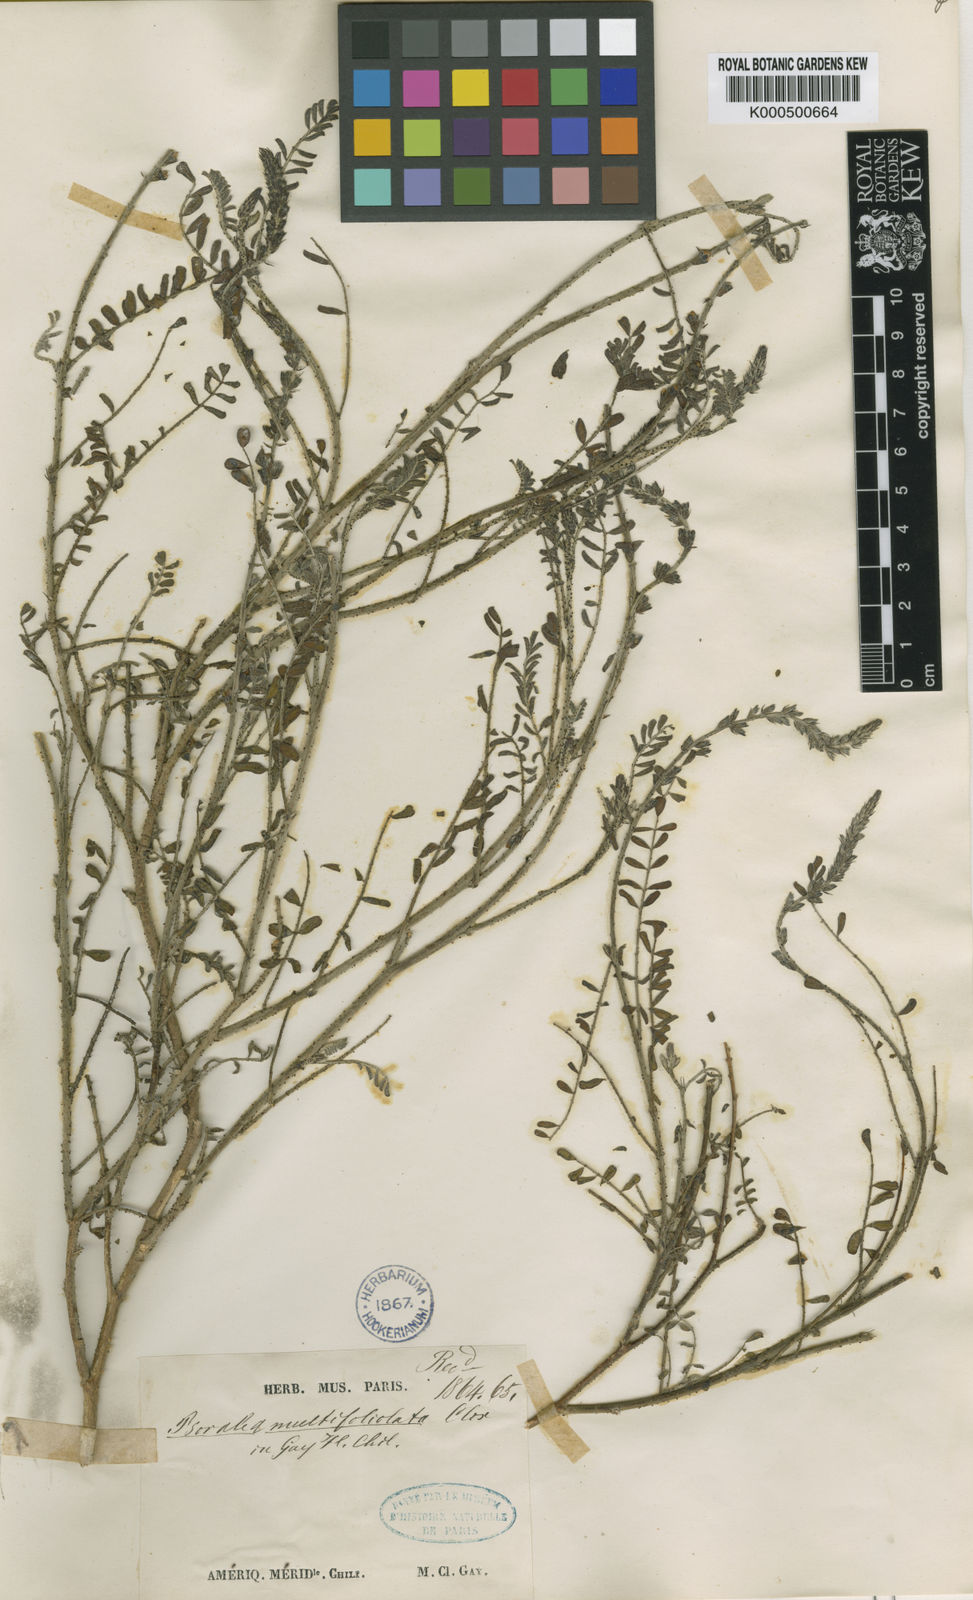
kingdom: Plantae
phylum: Tracheophyta
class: Magnoliopsida
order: Fabales
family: Fabaceae
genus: Errazurizia
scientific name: Errazurizia multifoliolata
